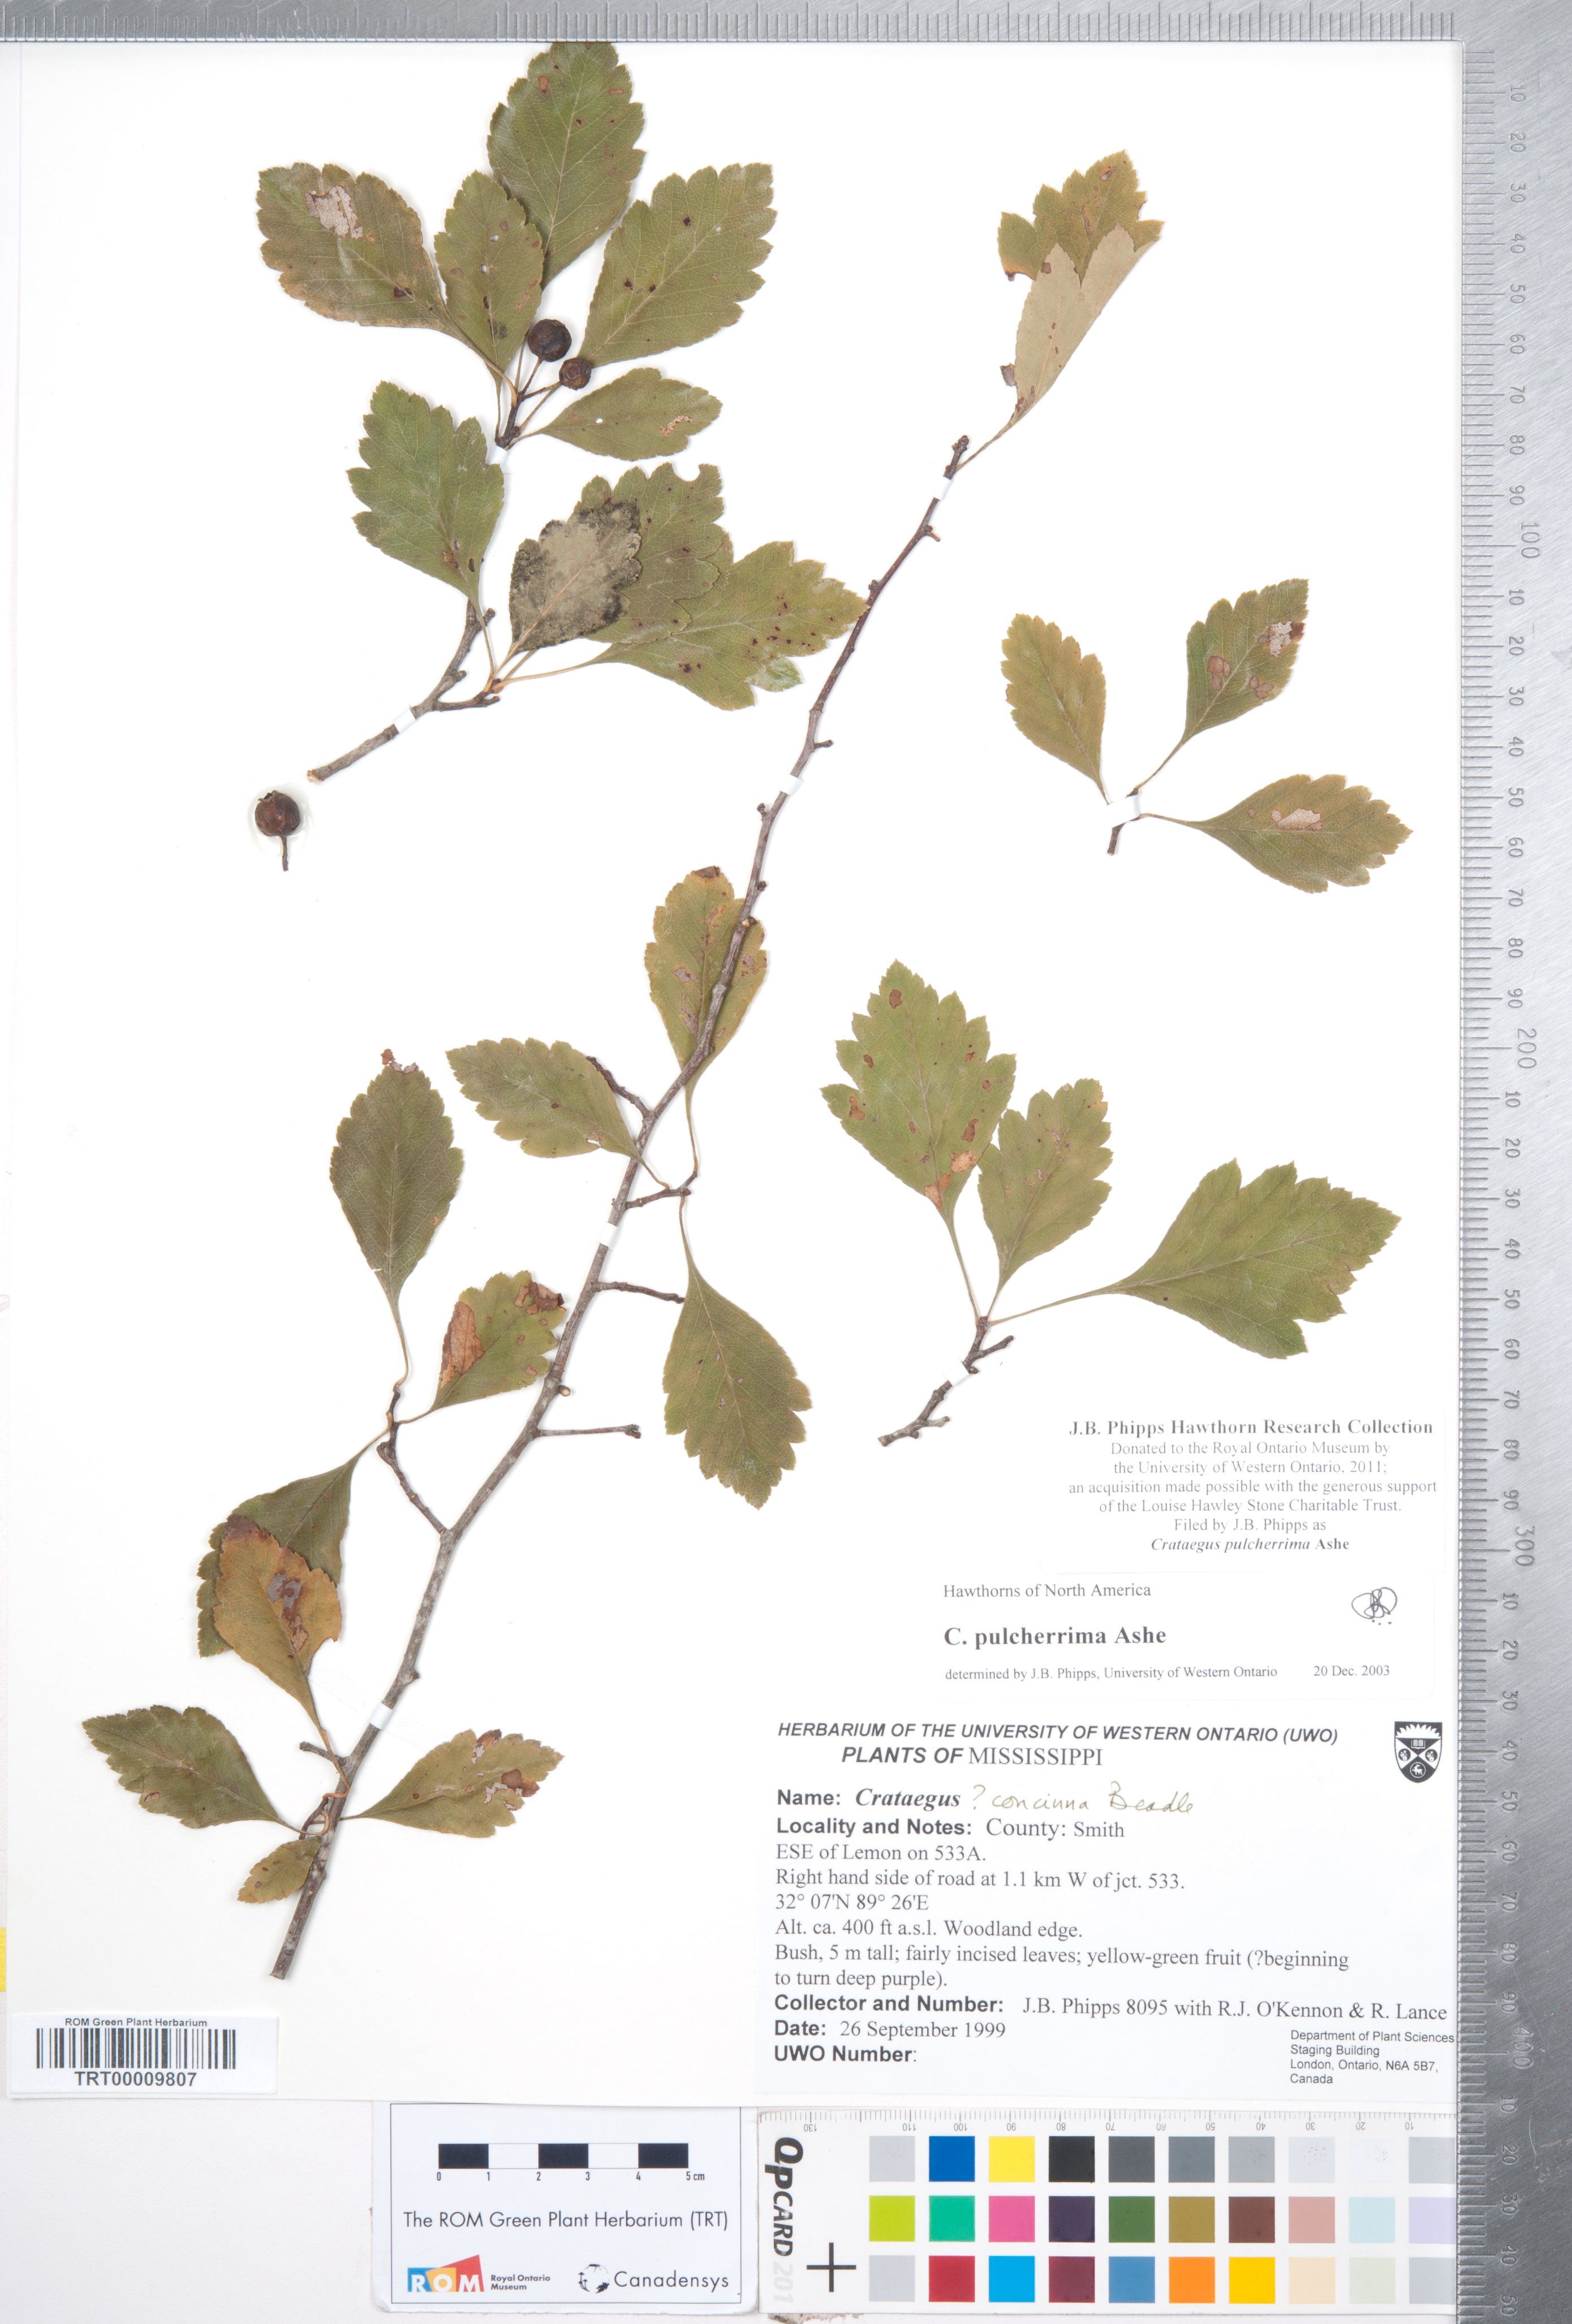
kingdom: Plantae
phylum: Tracheophyta
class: Magnoliopsida
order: Rosales
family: Rosaceae
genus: Crataegus
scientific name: Crataegus pulcherrima
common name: Beautiful hawthorn
